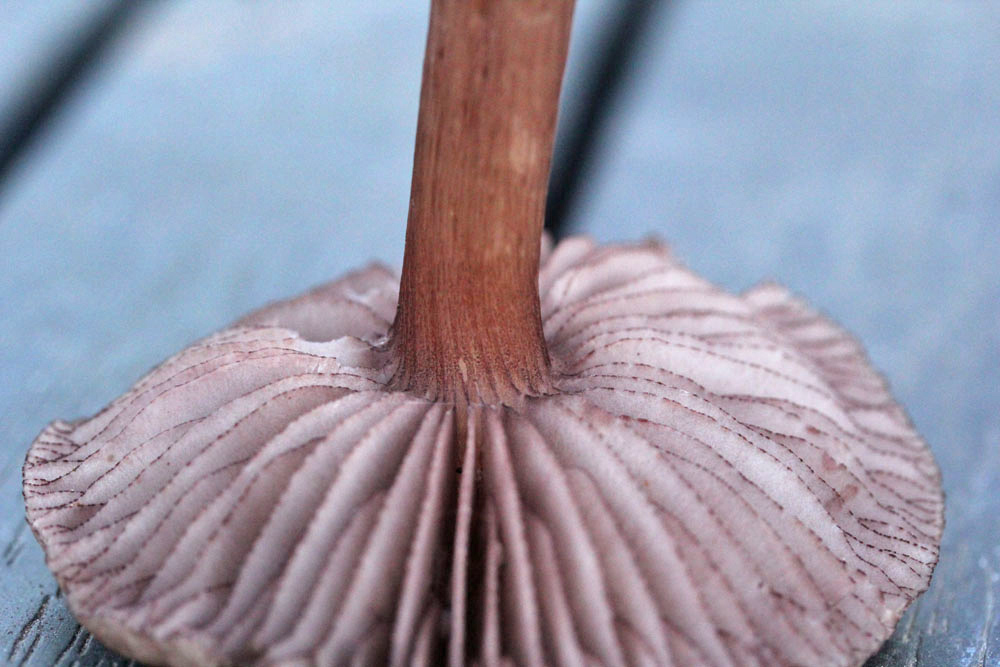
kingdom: Fungi
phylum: Basidiomycota
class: Agaricomycetes
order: Agaricales
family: Mycenaceae
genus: Mycena
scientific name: Mycena pelianthina
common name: mørkbladet huesvamp
